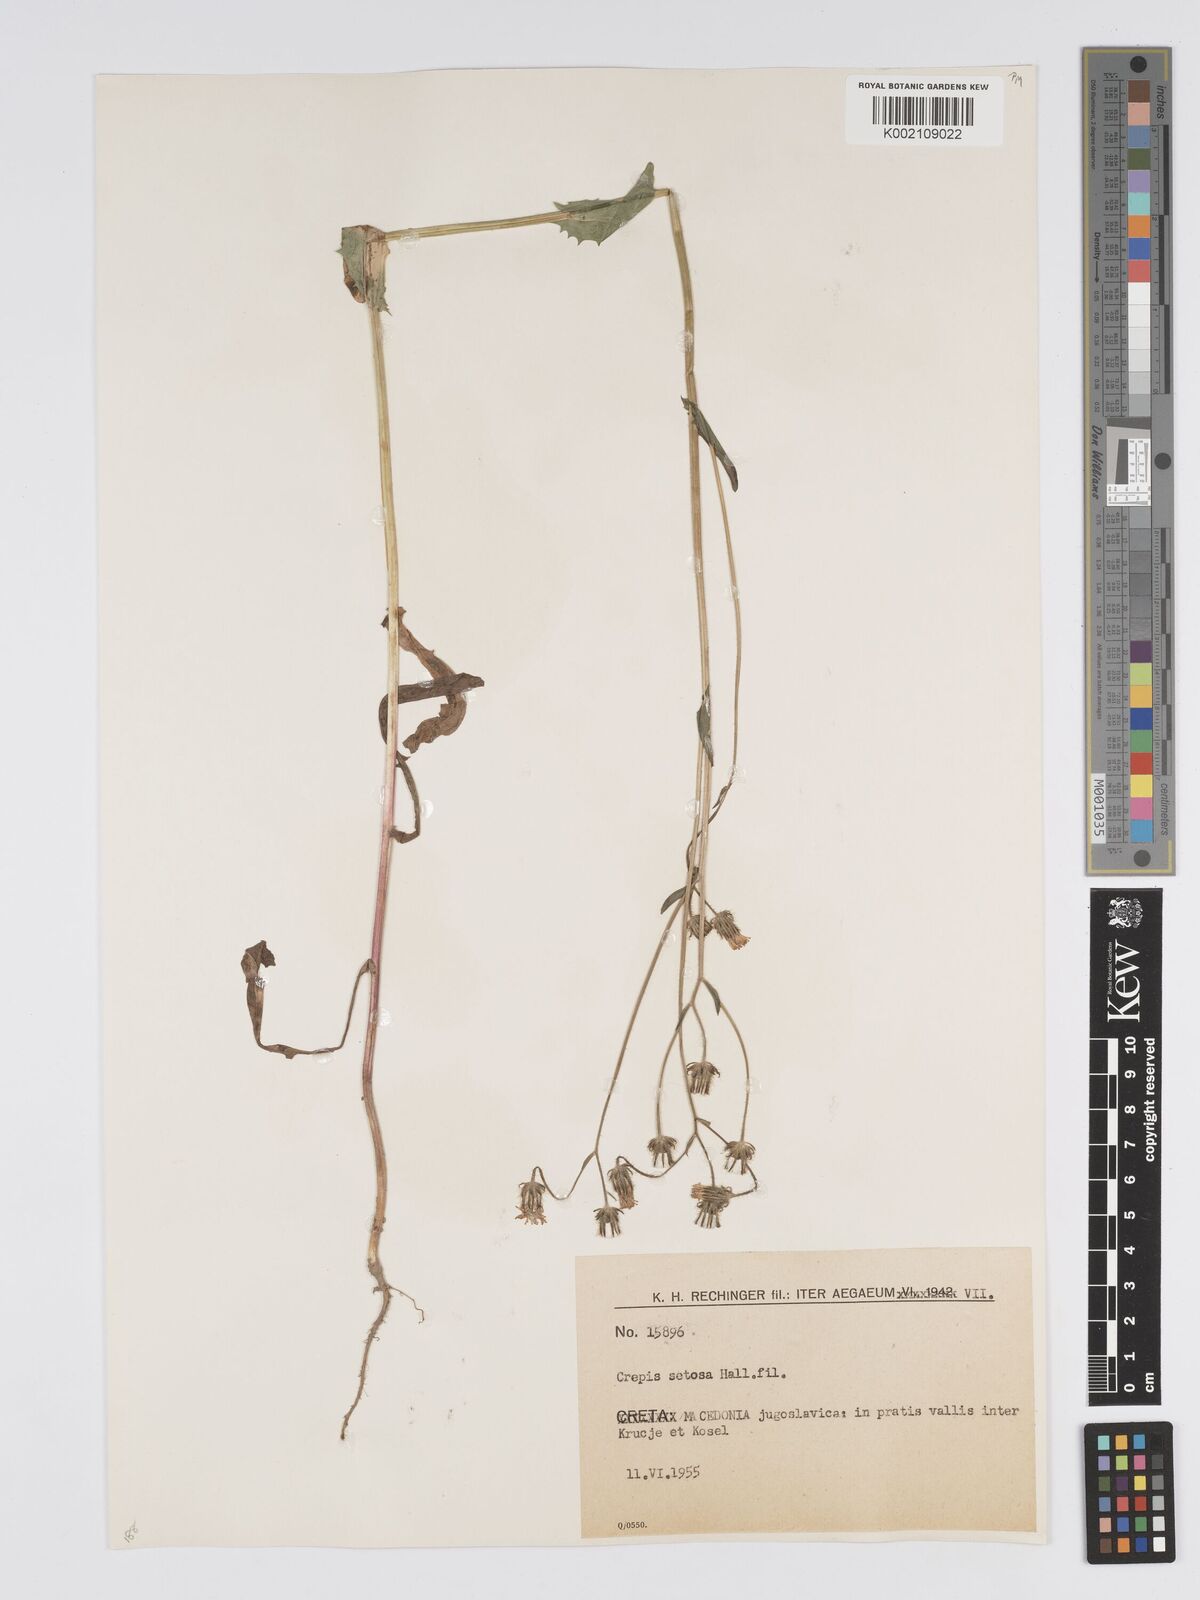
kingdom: Plantae
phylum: Tracheophyta
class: Magnoliopsida
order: Asterales
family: Asteraceae
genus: Crepis
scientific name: Crepis setosa
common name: Bristly hawk's-beard
